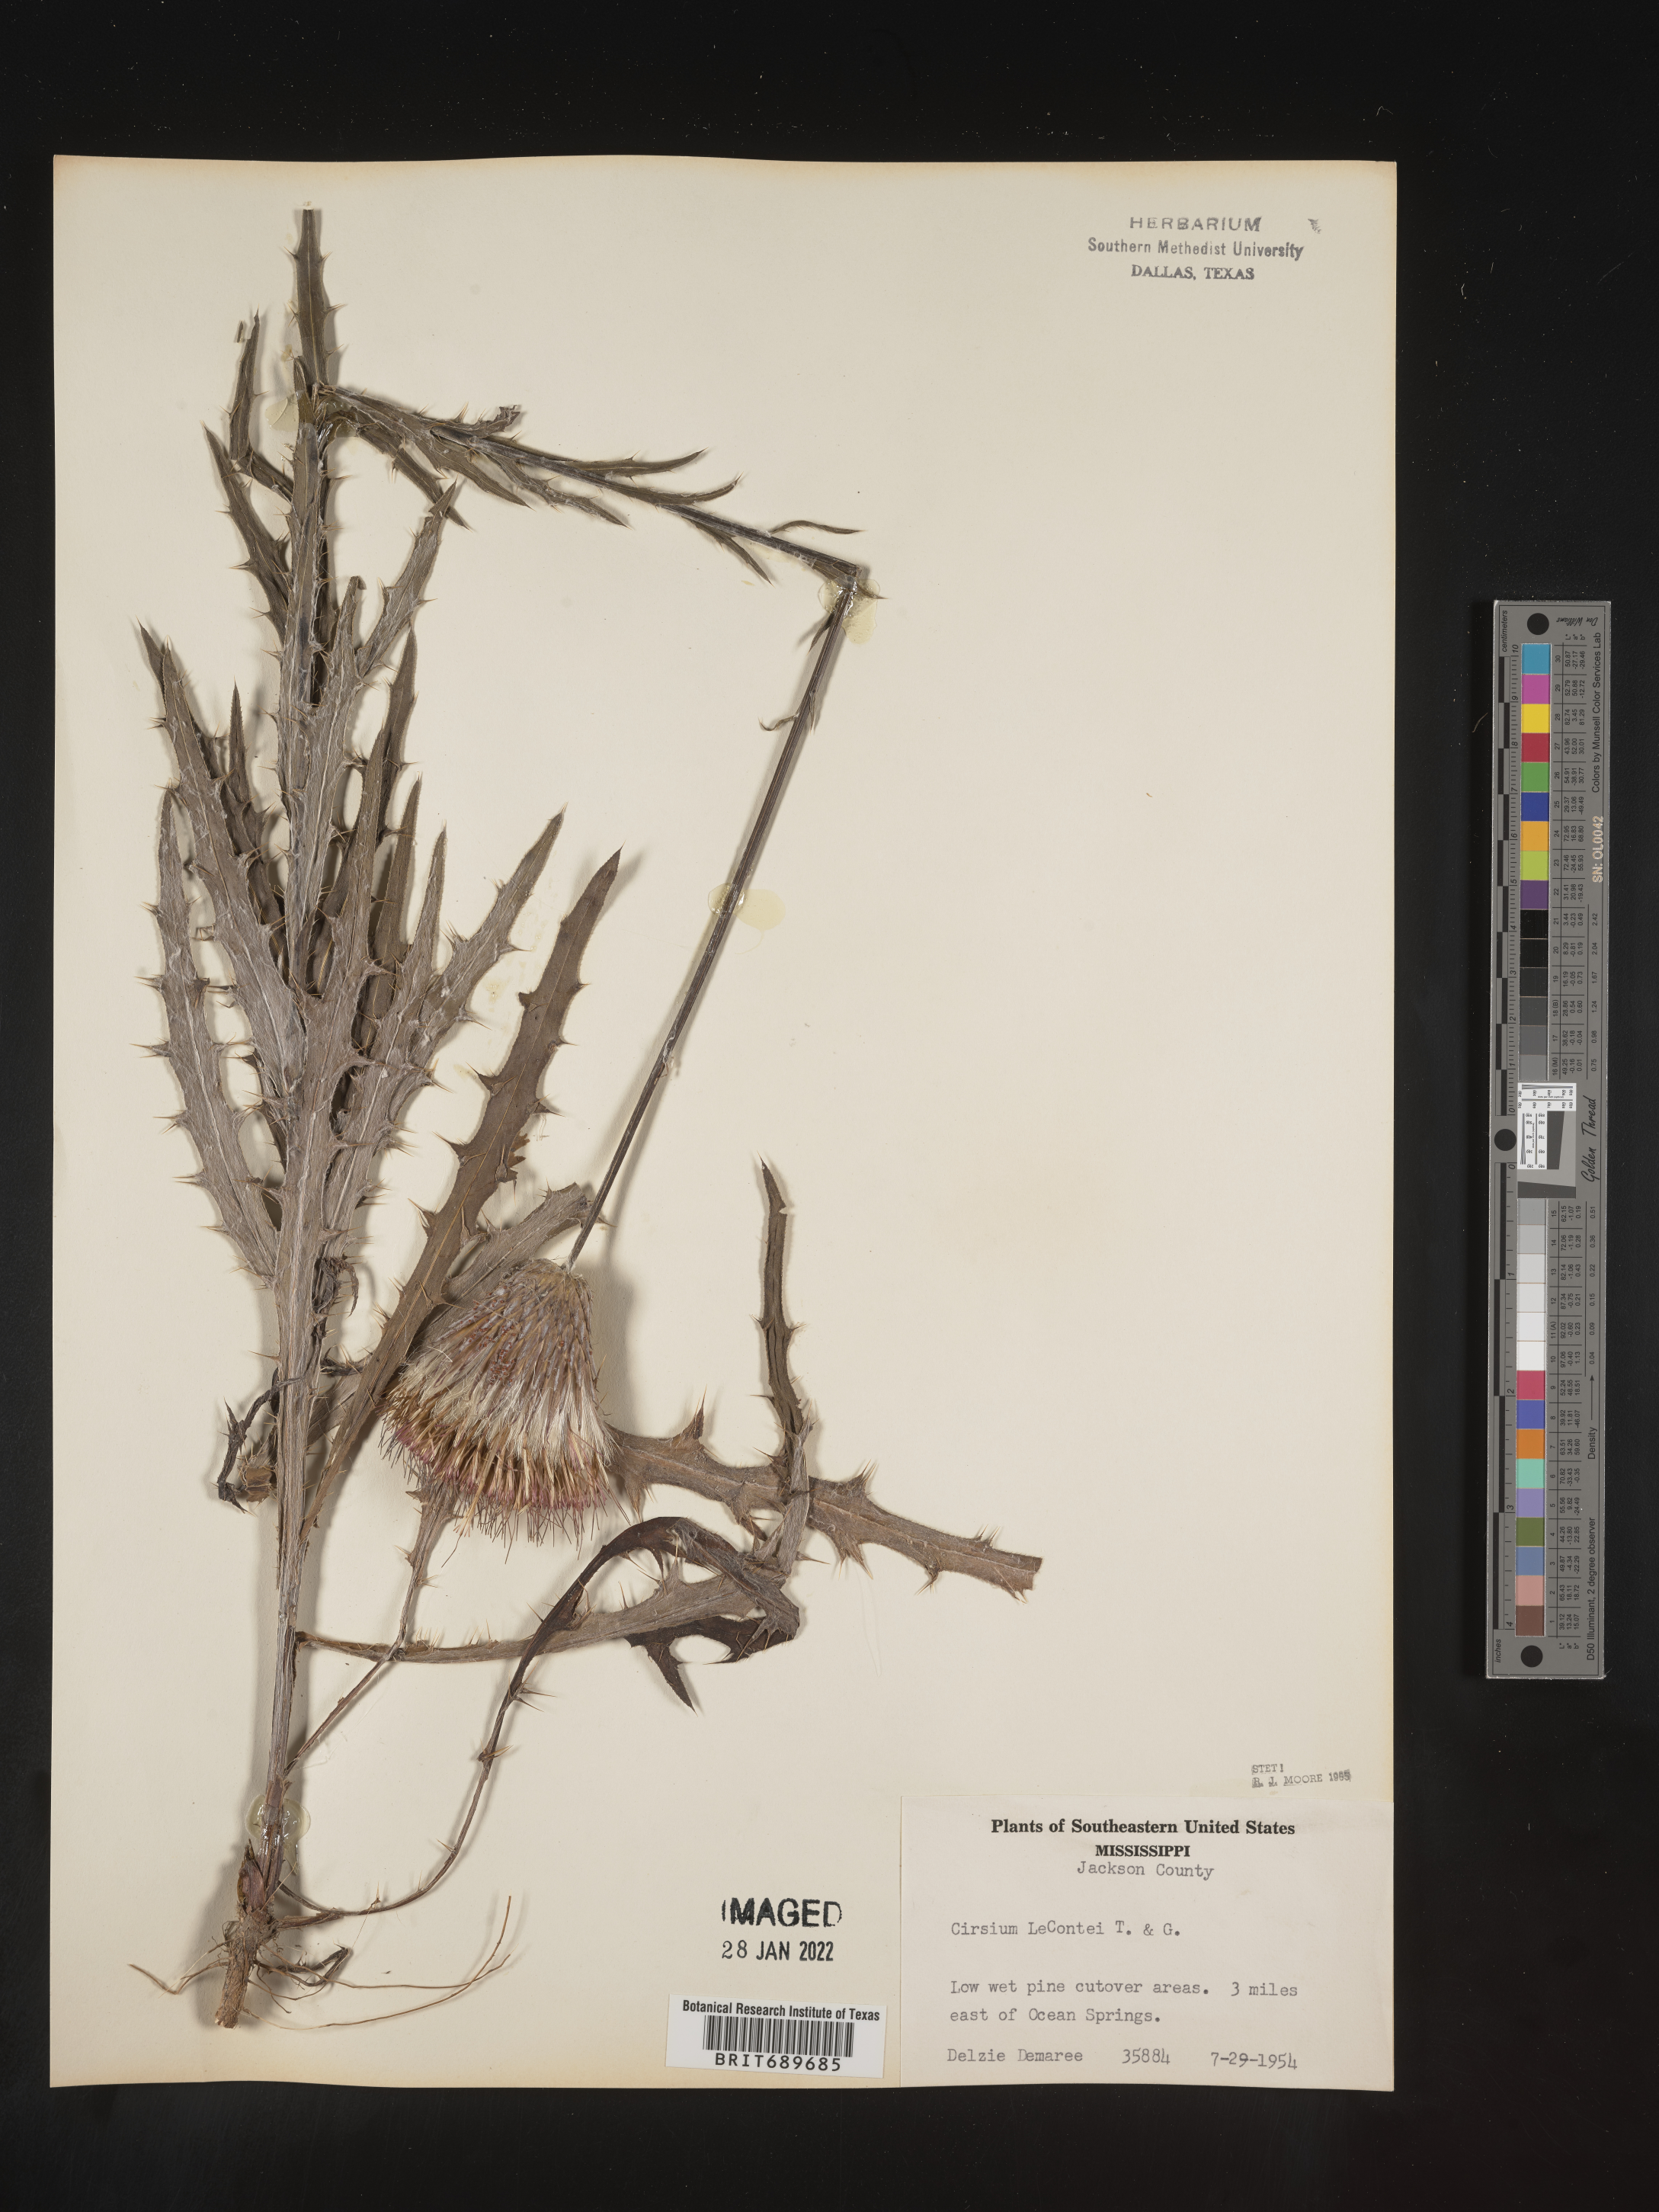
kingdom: Plantae
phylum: Tracheophyta
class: Magnoliopsida
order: Asterales
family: Asteraceae
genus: Cirsium
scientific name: Cirsium lecontei
